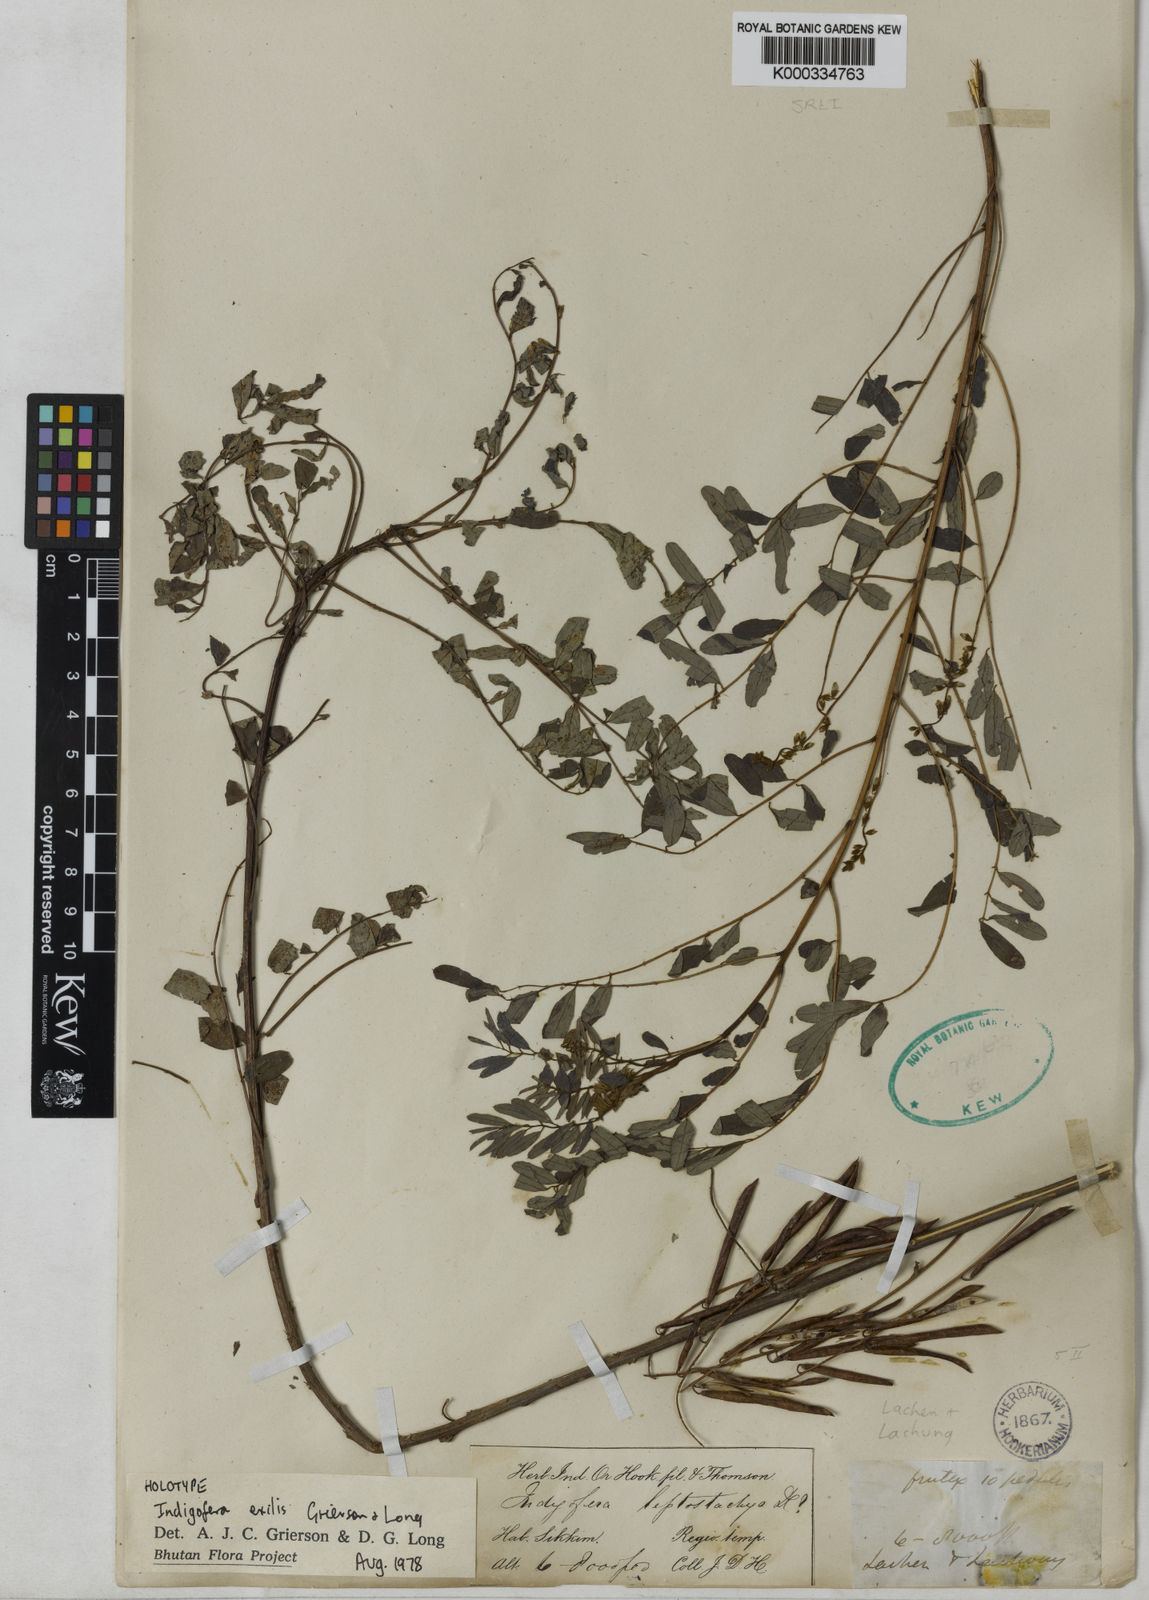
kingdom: Plantae
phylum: Tracheophyta
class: Magnoliopsida
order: Fabales
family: Fabaceae
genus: Indigofera
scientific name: Indigofera exilis
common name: Slender indigo
